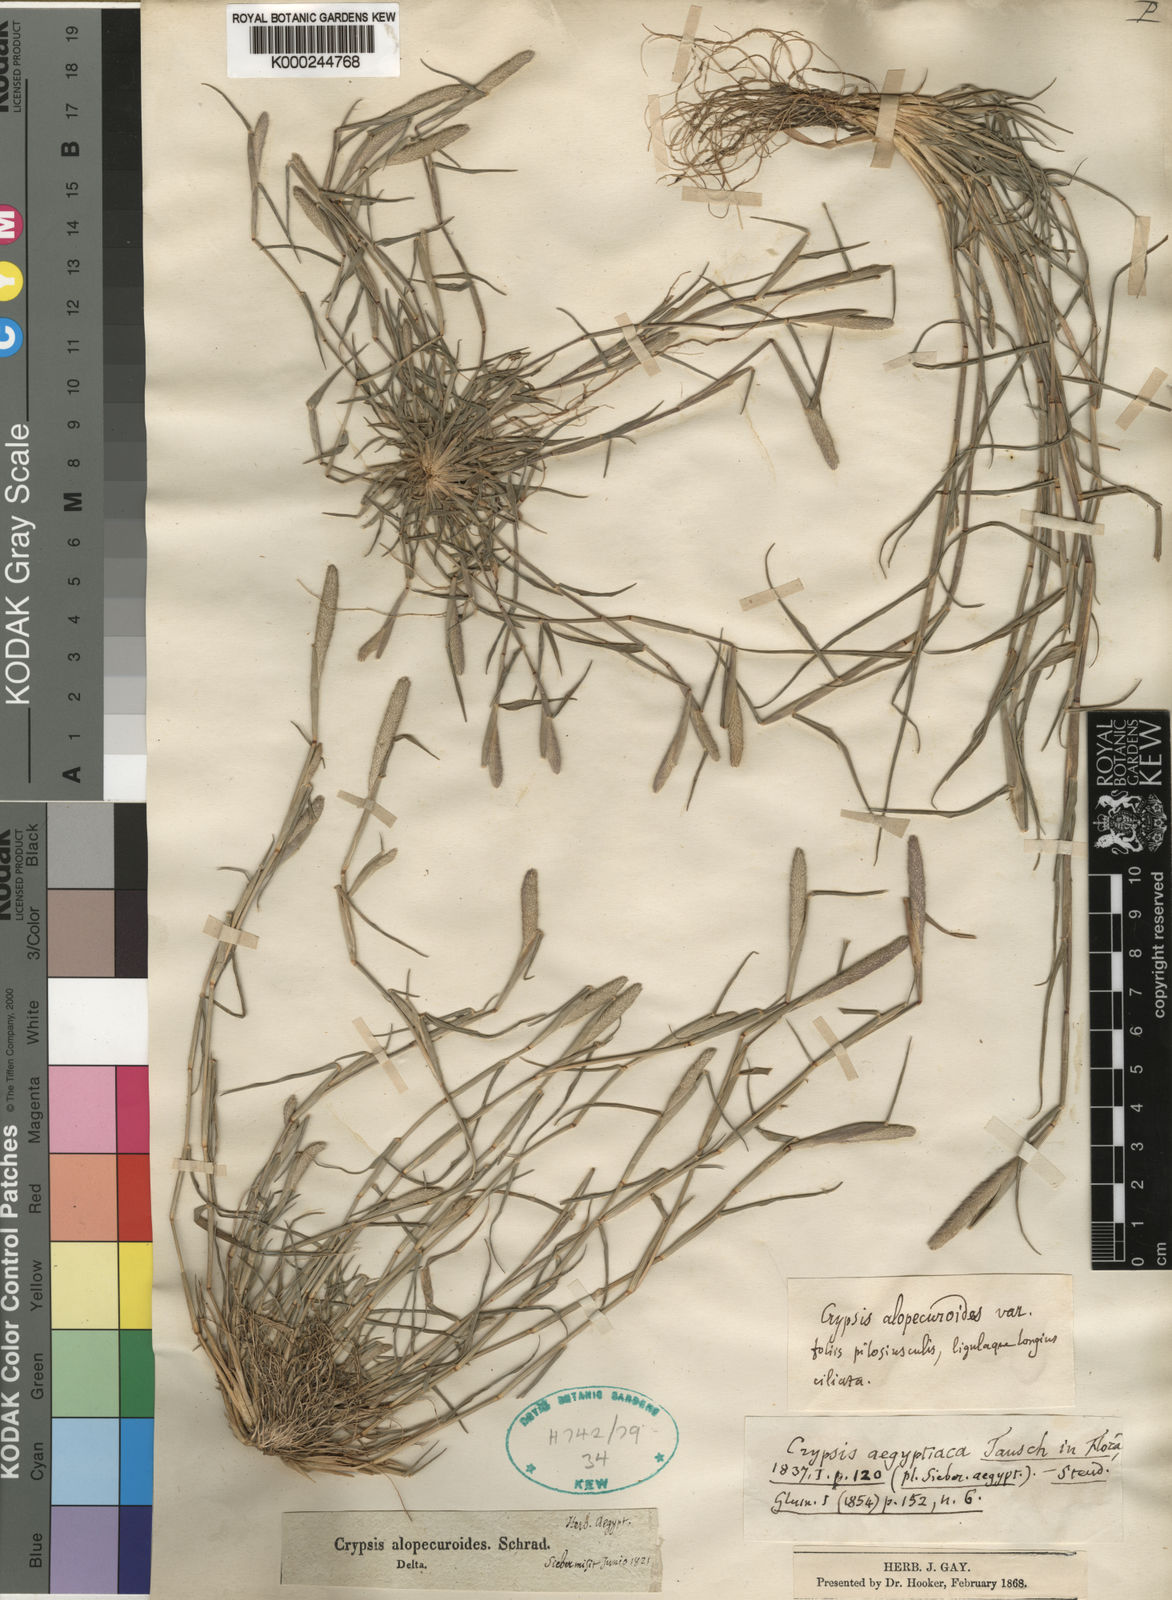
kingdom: Plantae
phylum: Tracheophyta
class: Liliopsida
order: Poales
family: Poaceae
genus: Sporobolus
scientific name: Sporobolus alopecuroides
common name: Foxtail pricklegrass
